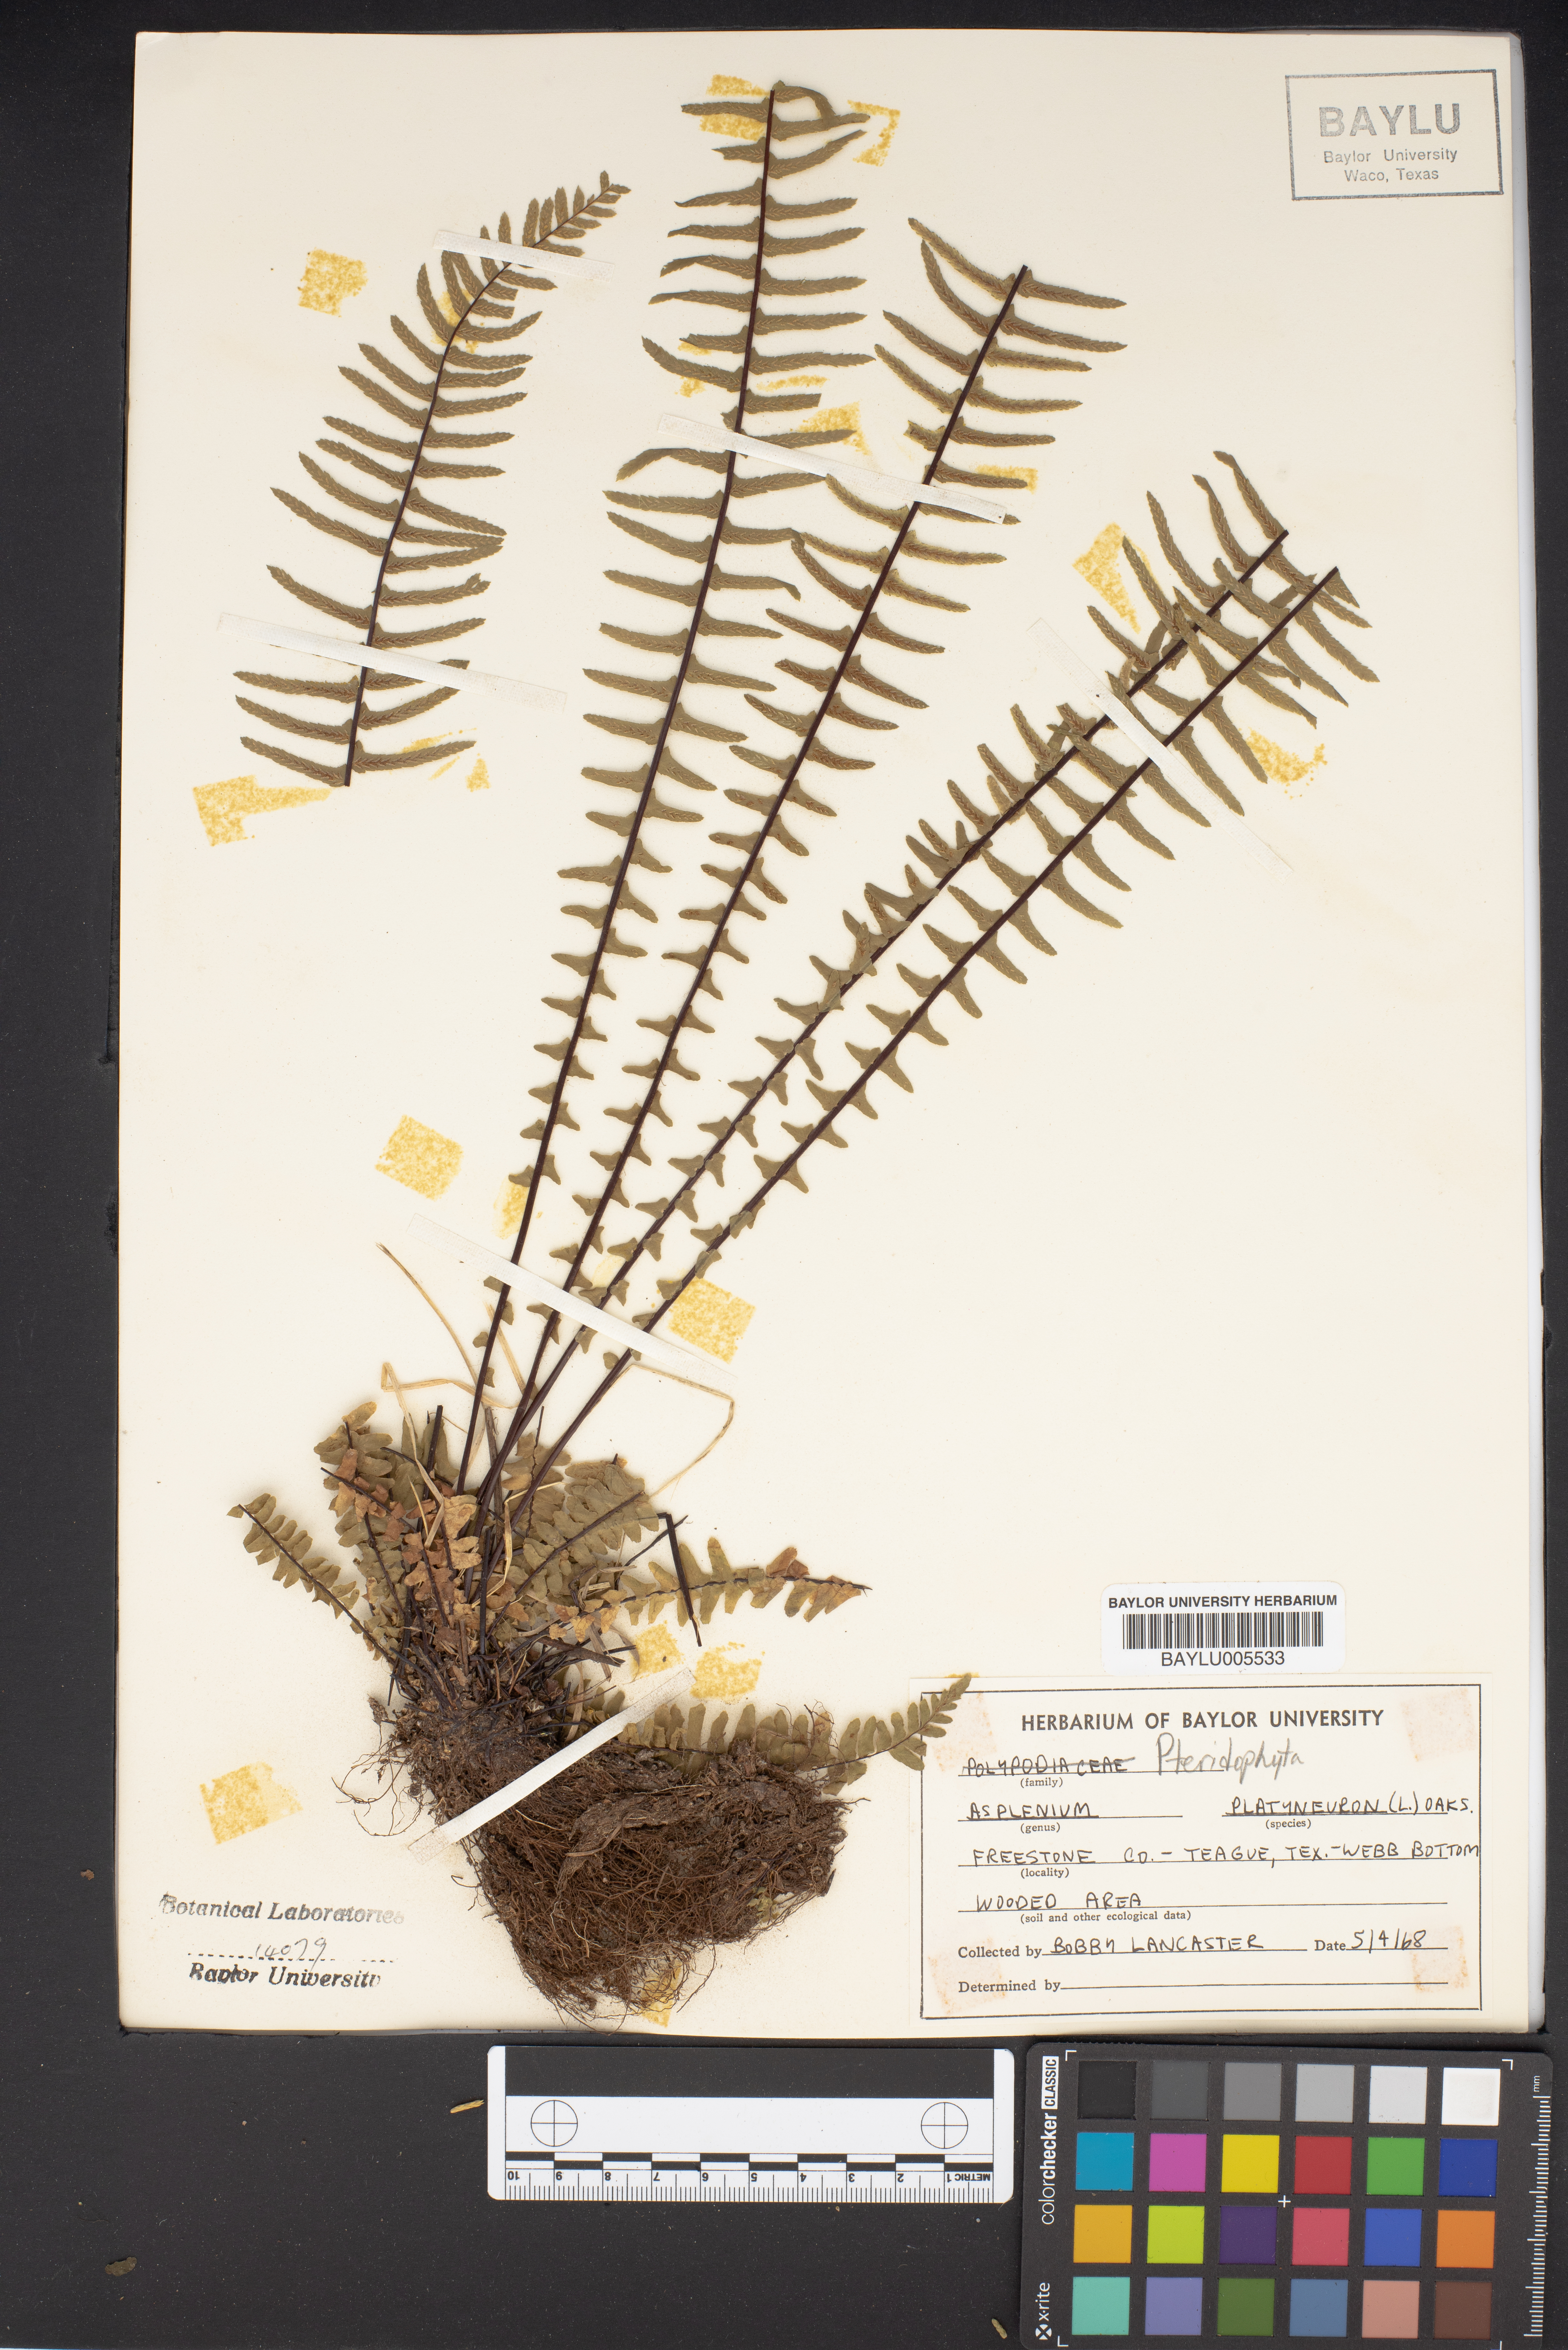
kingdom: Plantae
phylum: Tracheophyta
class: Polypodiopsida
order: Polypodiales
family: Aspleniaceae
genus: Asplenium
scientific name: Asplenium platyneuron
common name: Ebony spleenwort
